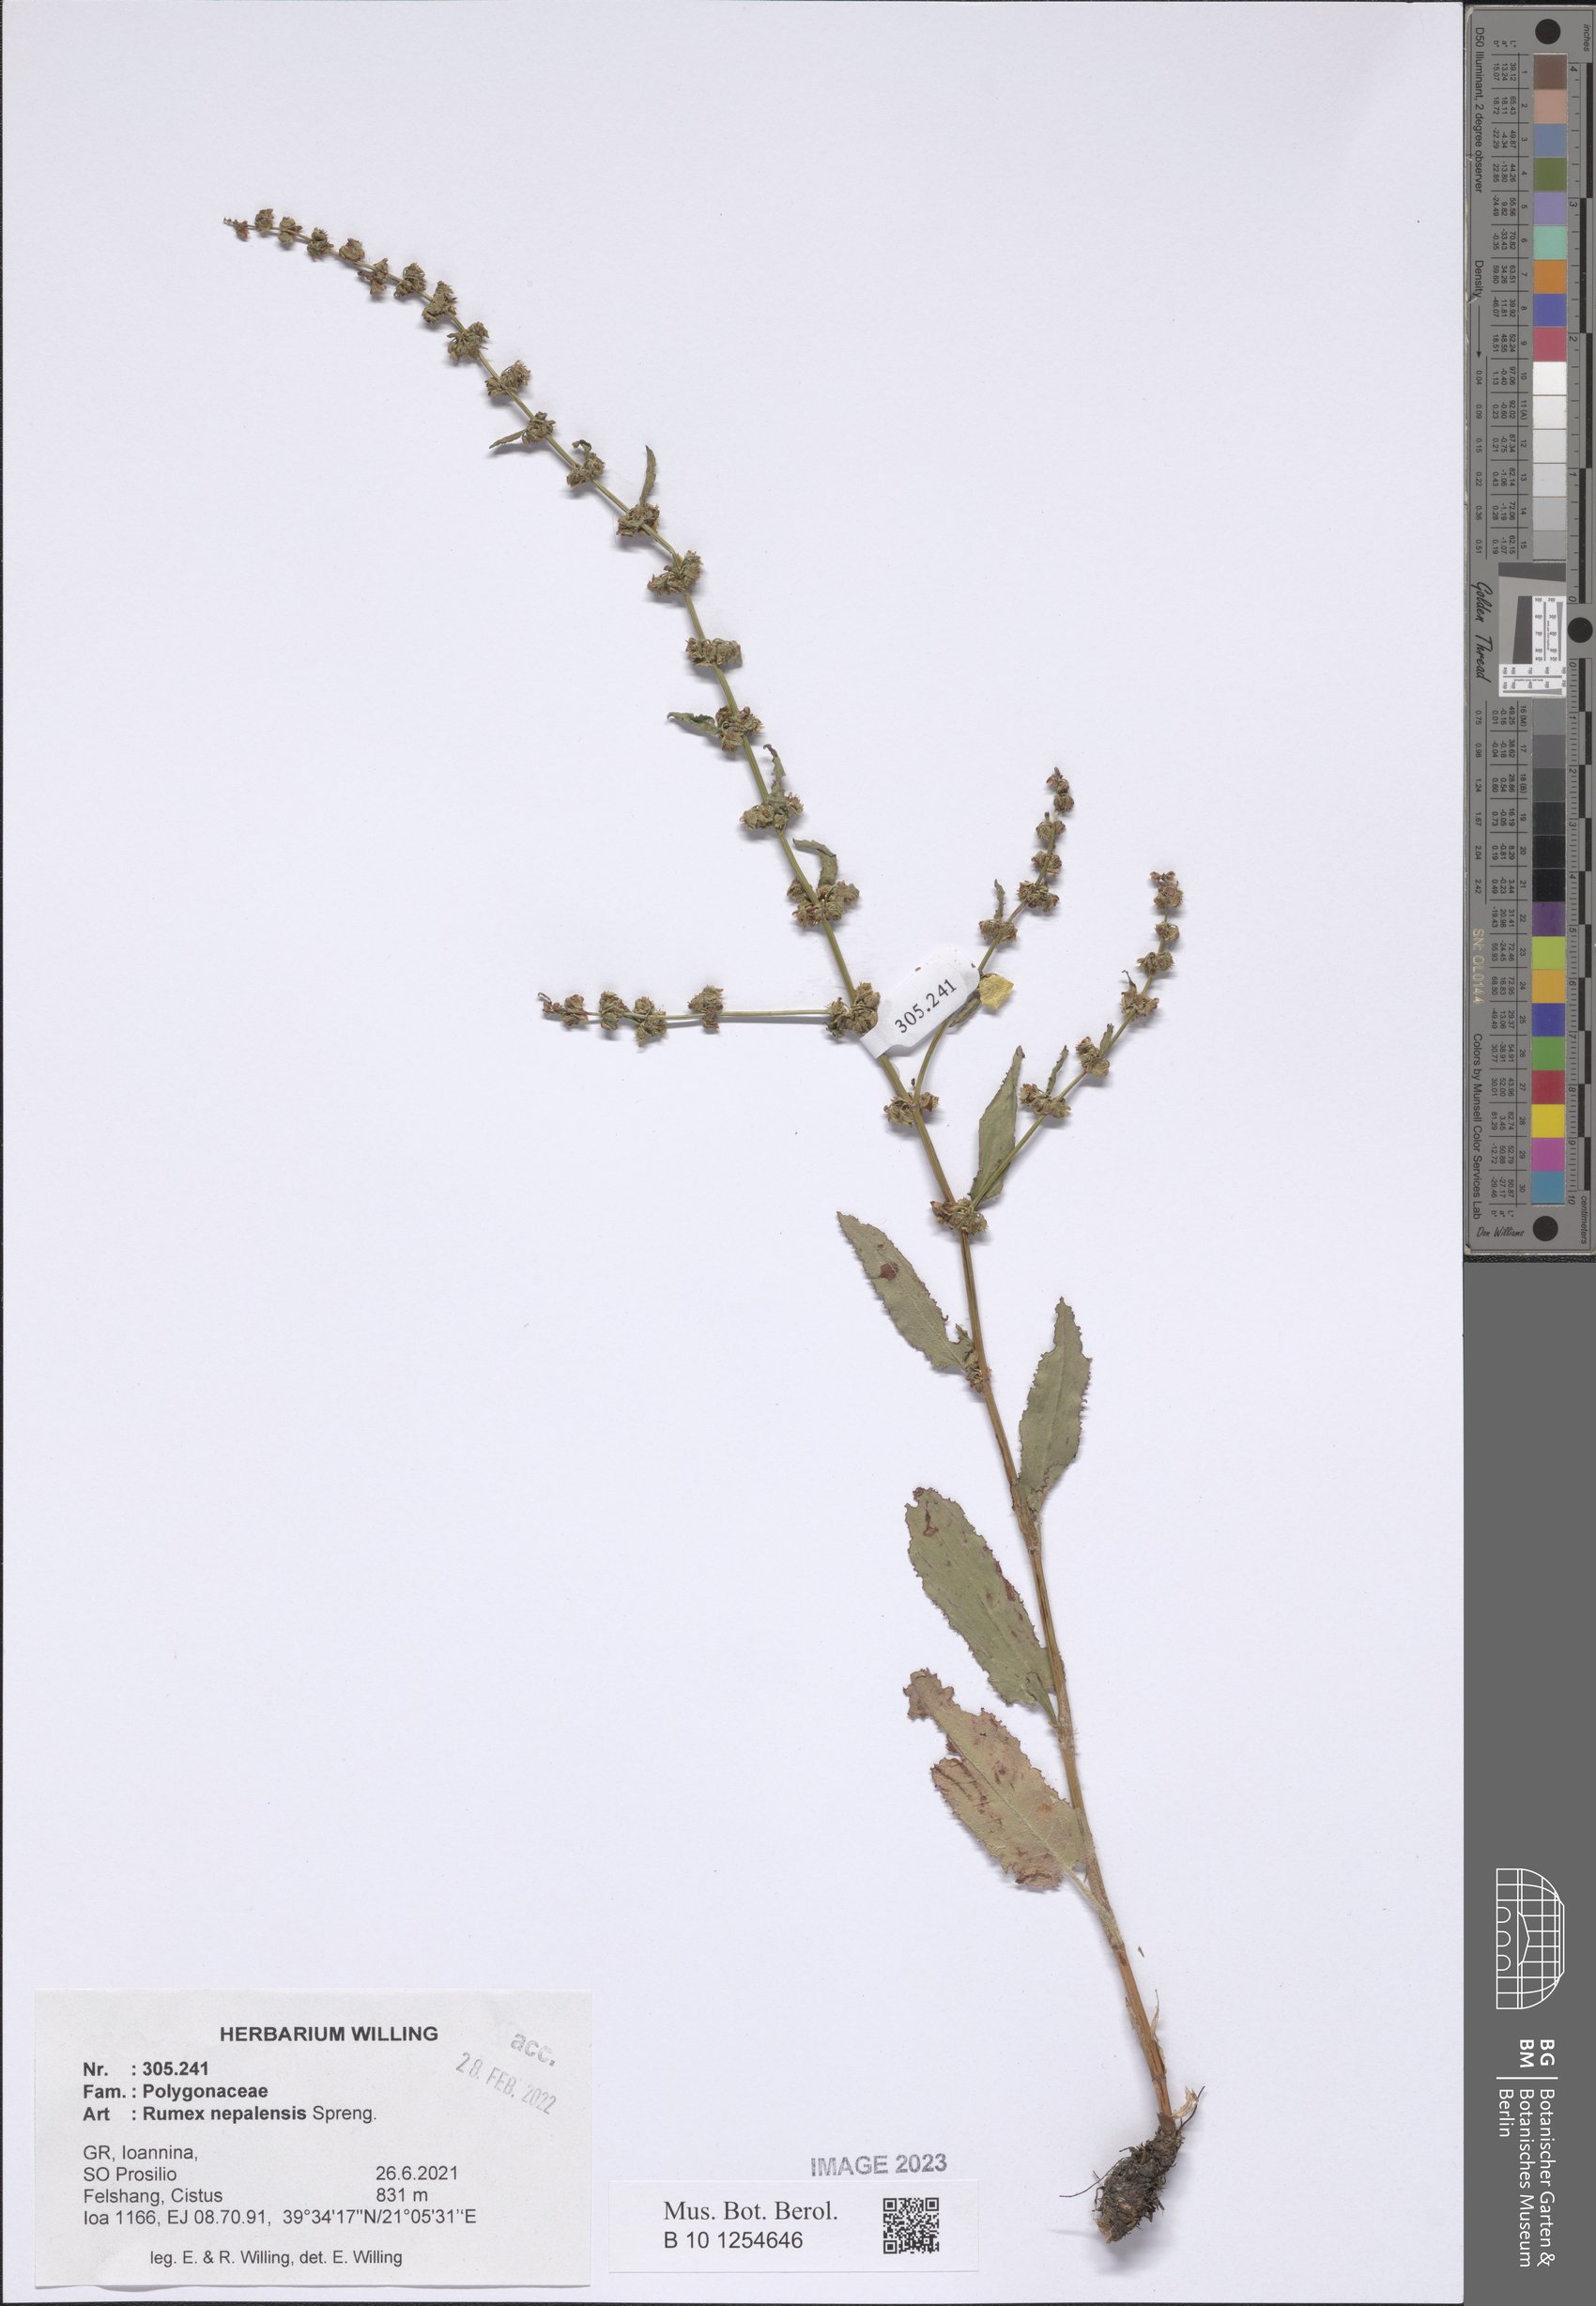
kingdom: Plantae
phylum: Tracheophyta
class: Magnoliopsida
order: Caryophyllales
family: Polygonaceae
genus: Rumex
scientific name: Rumex nepalensis
